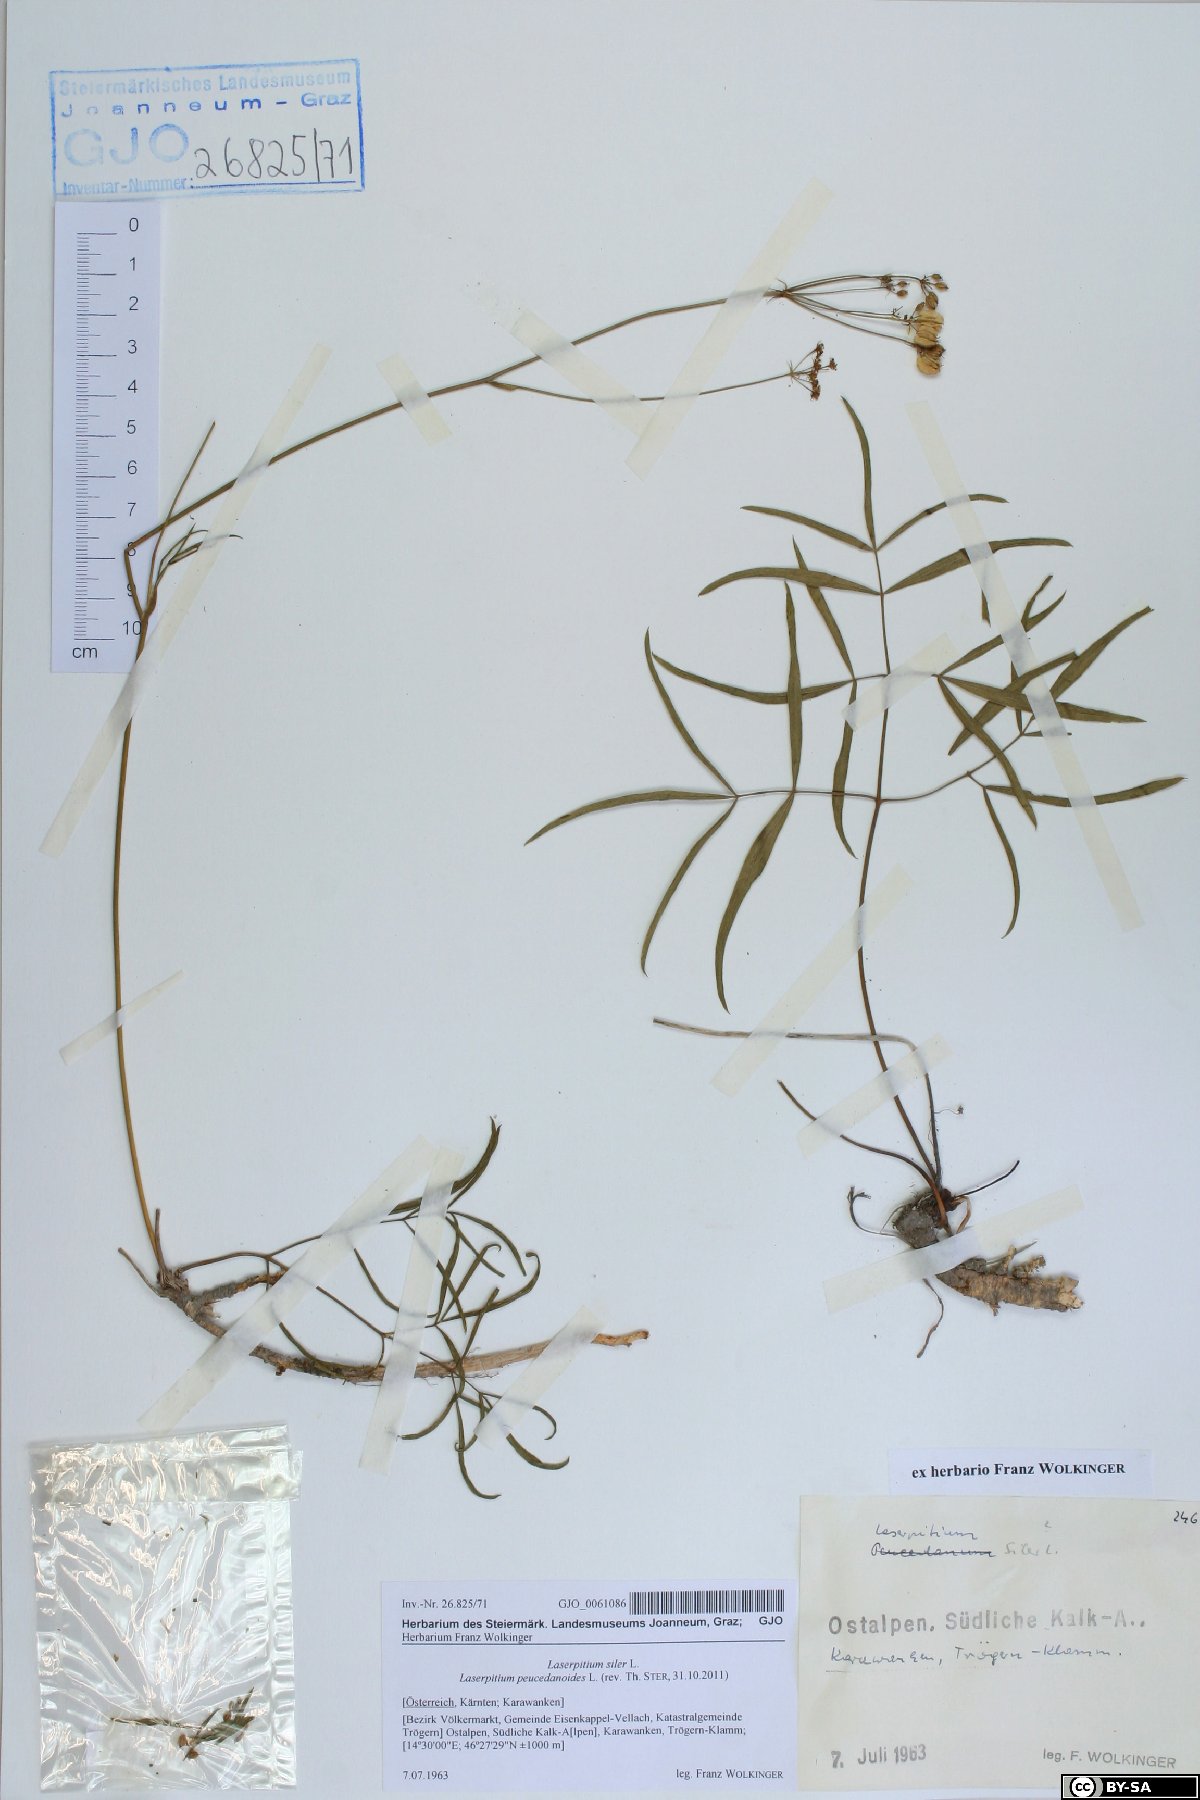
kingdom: Plantae
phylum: Tracheophyta
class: Magnoliopsida
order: Apiales
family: Apiaceae
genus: Laserpitium
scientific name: Laserpitium peucedanoides
